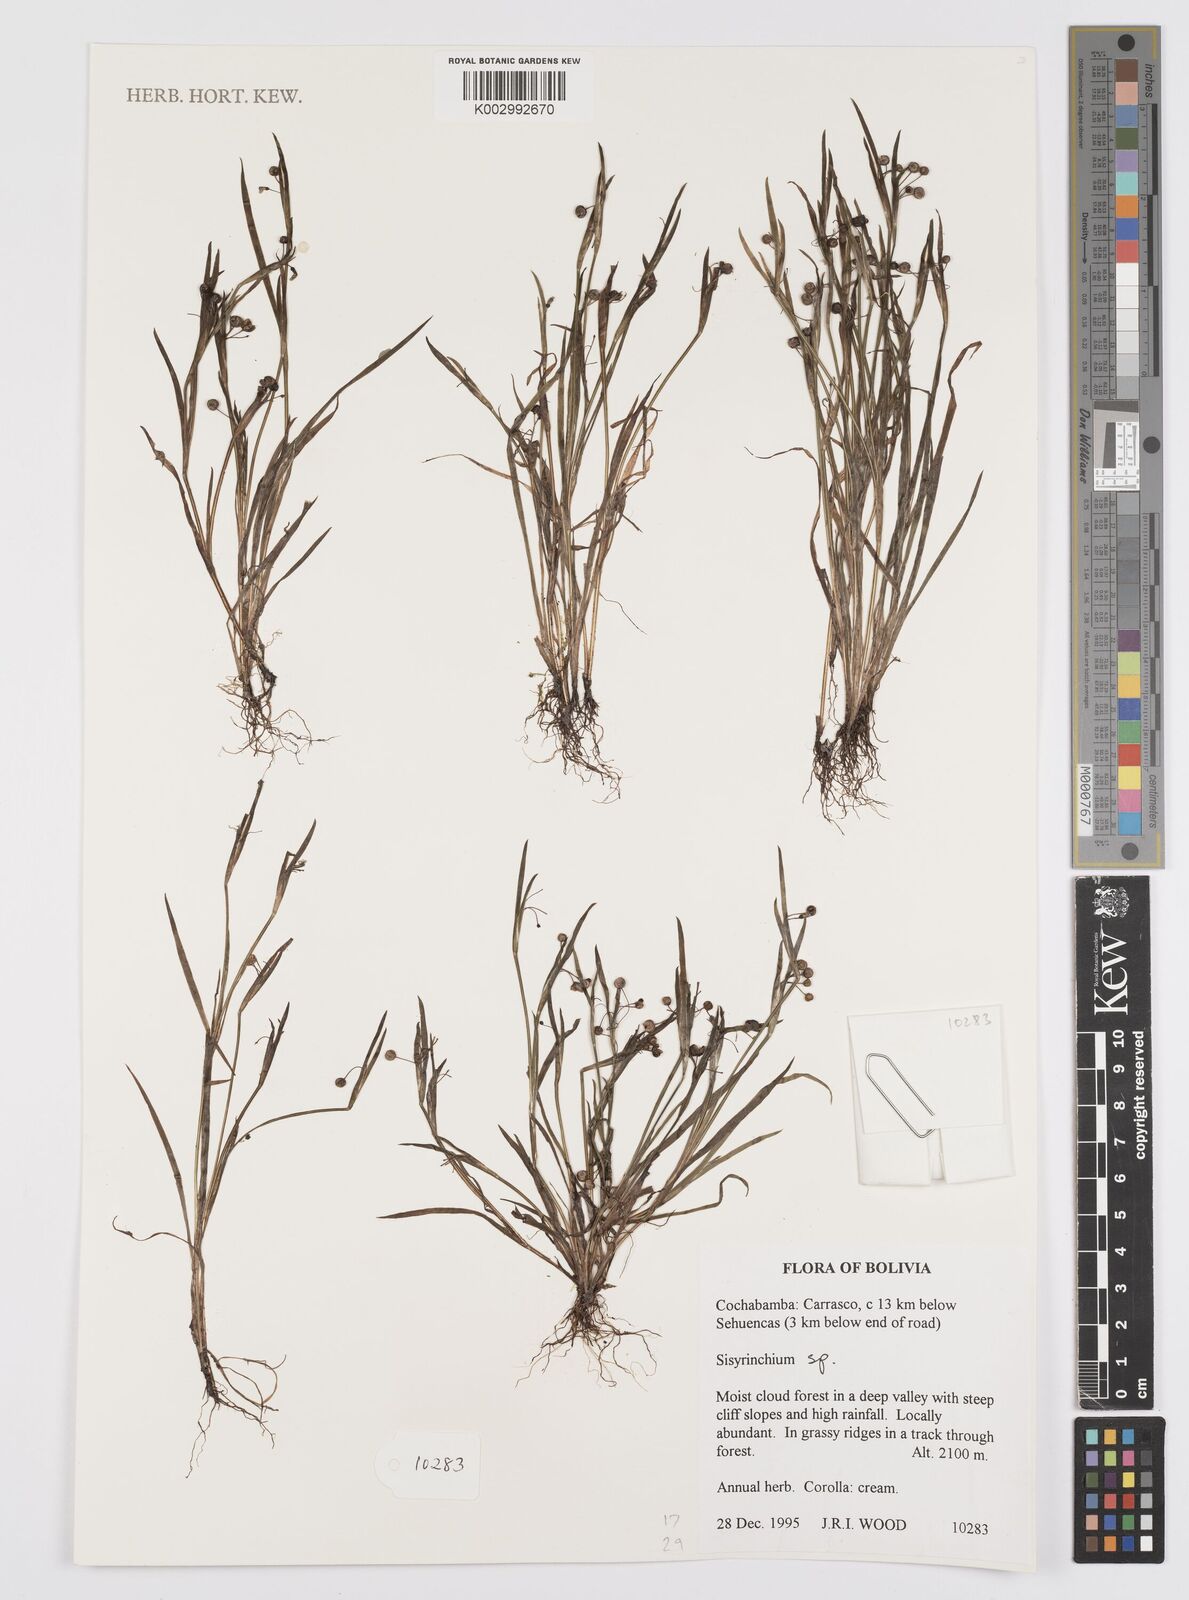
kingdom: Plantae
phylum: Tracheophyta
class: Liliopsida
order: Asparagales
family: Iridaceae
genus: Sisyrinchium
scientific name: Sisyrinchium
